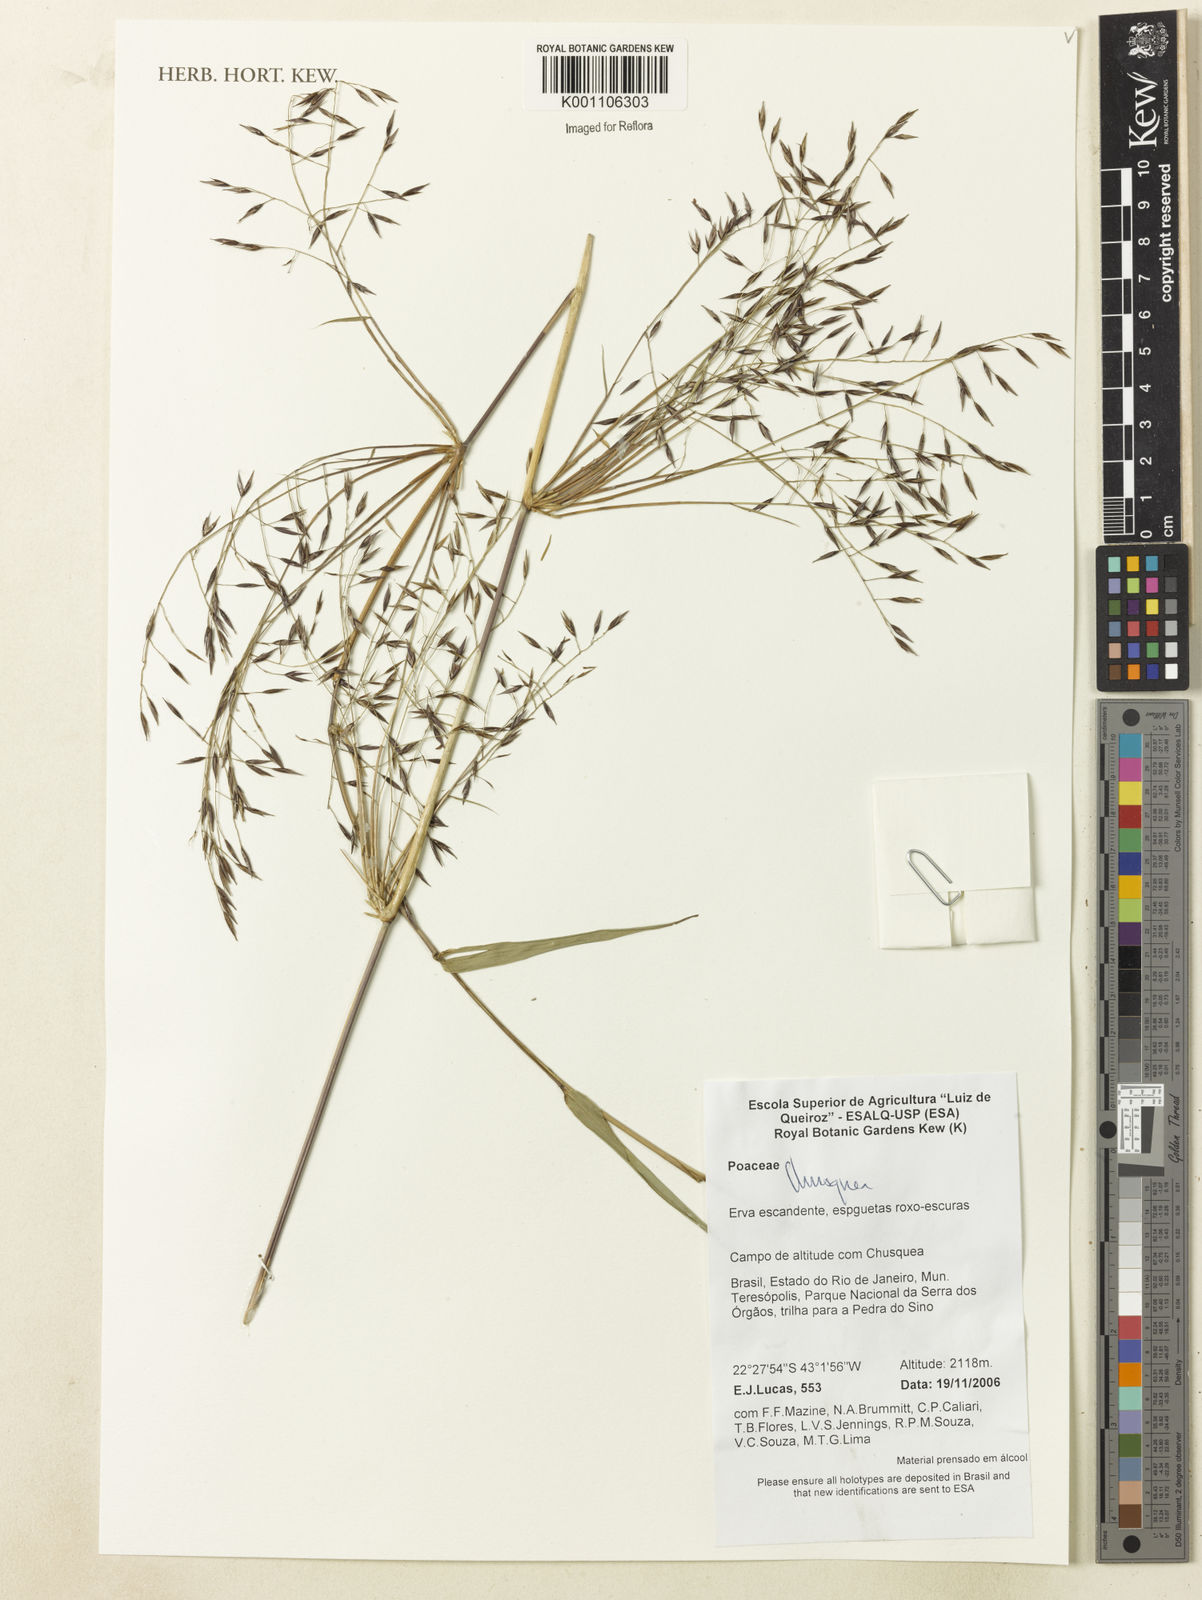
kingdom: Plantae
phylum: Tracheophyta
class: Liliopsida
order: Poales
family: Poaceae
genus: Chusquea
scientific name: Chusquea
